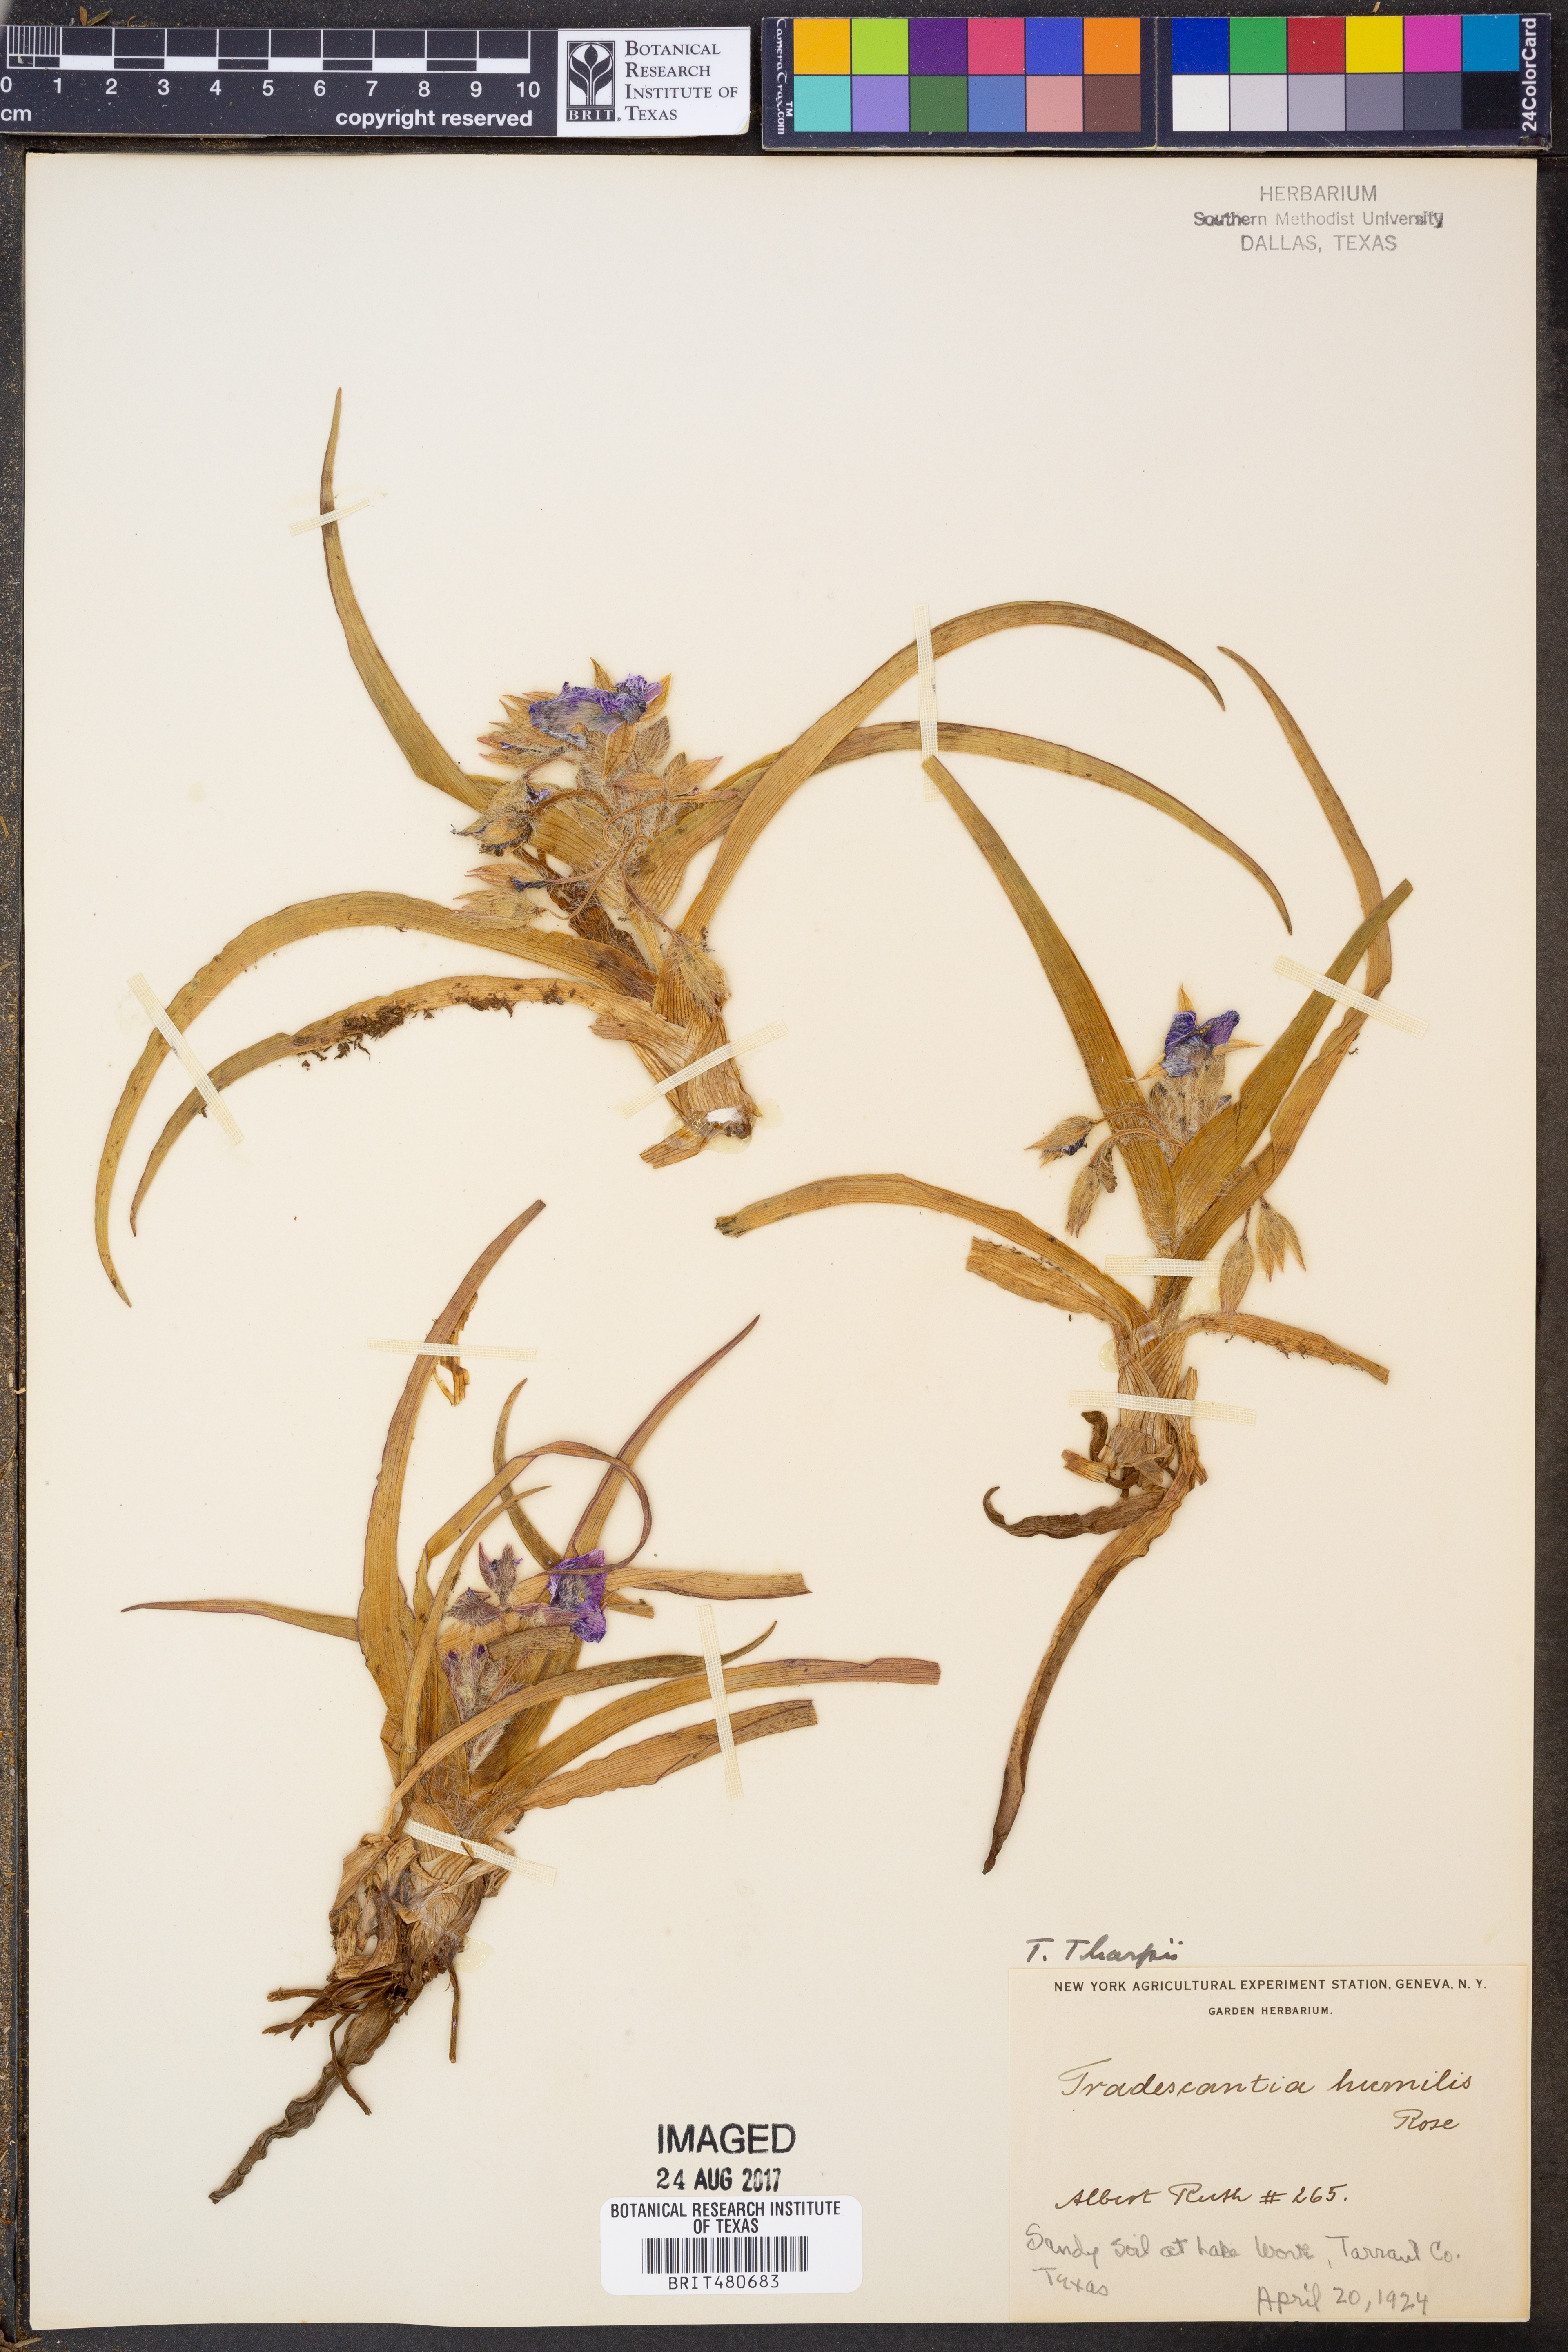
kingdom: Plantae
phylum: Tracheophyta
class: Liliopsida
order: Commelinales
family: Commelinaceae
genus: Tradescantia
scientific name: Tradescantia tharpii
